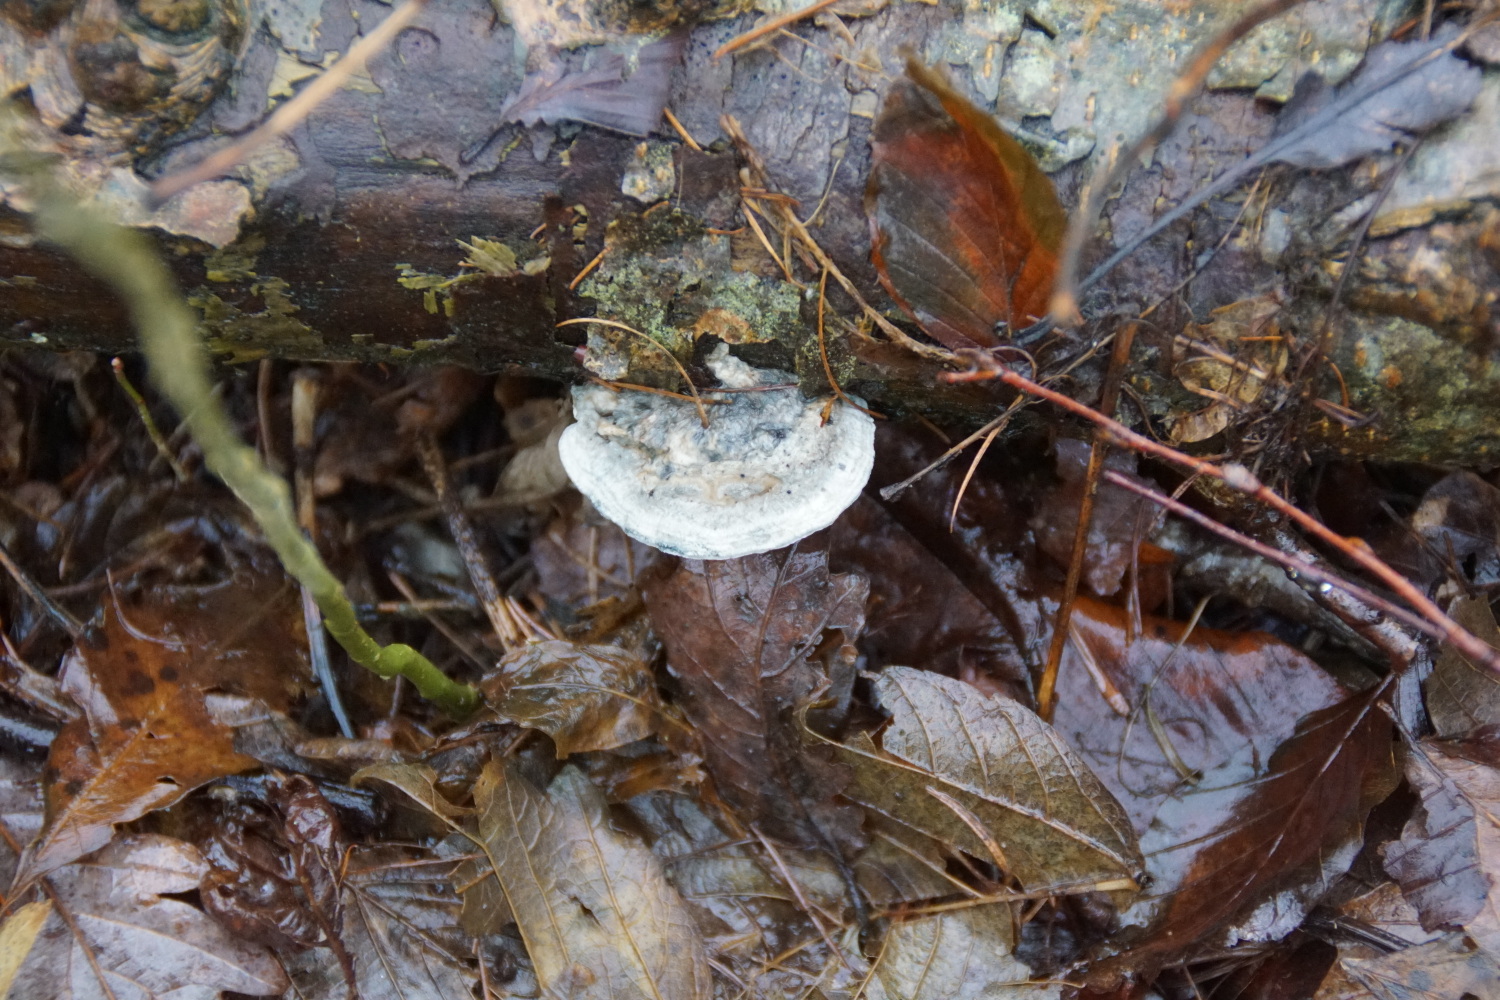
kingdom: Fungi
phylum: Basidiomycota
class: Agaricomycetes
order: Polyporales
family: Polyporaceae
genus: Cyanosporus
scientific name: Cyanosporus alni
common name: blegblå kødporesvamp
